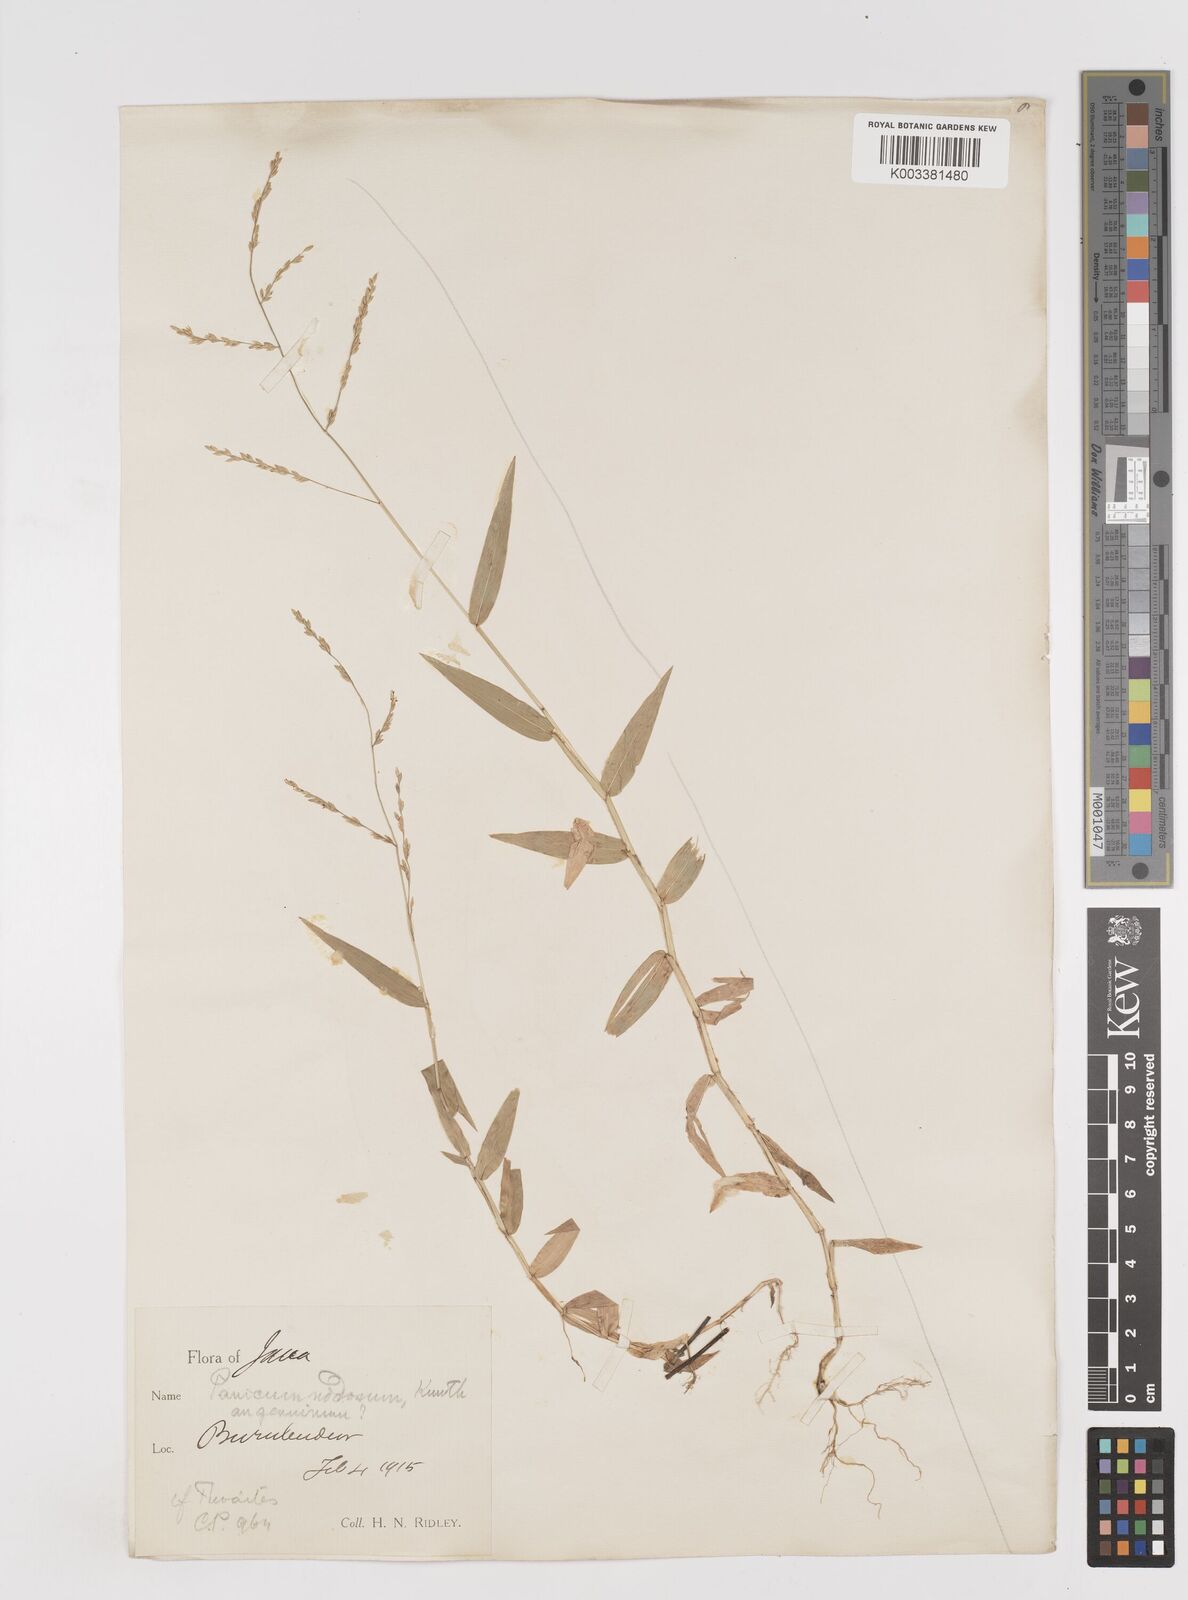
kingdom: Plantae
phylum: Tracheophyta
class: Liliopsida
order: Poales
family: Poaceae
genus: Ottochloa
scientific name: Ottochloa nodosa
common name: Slender-panic grass
